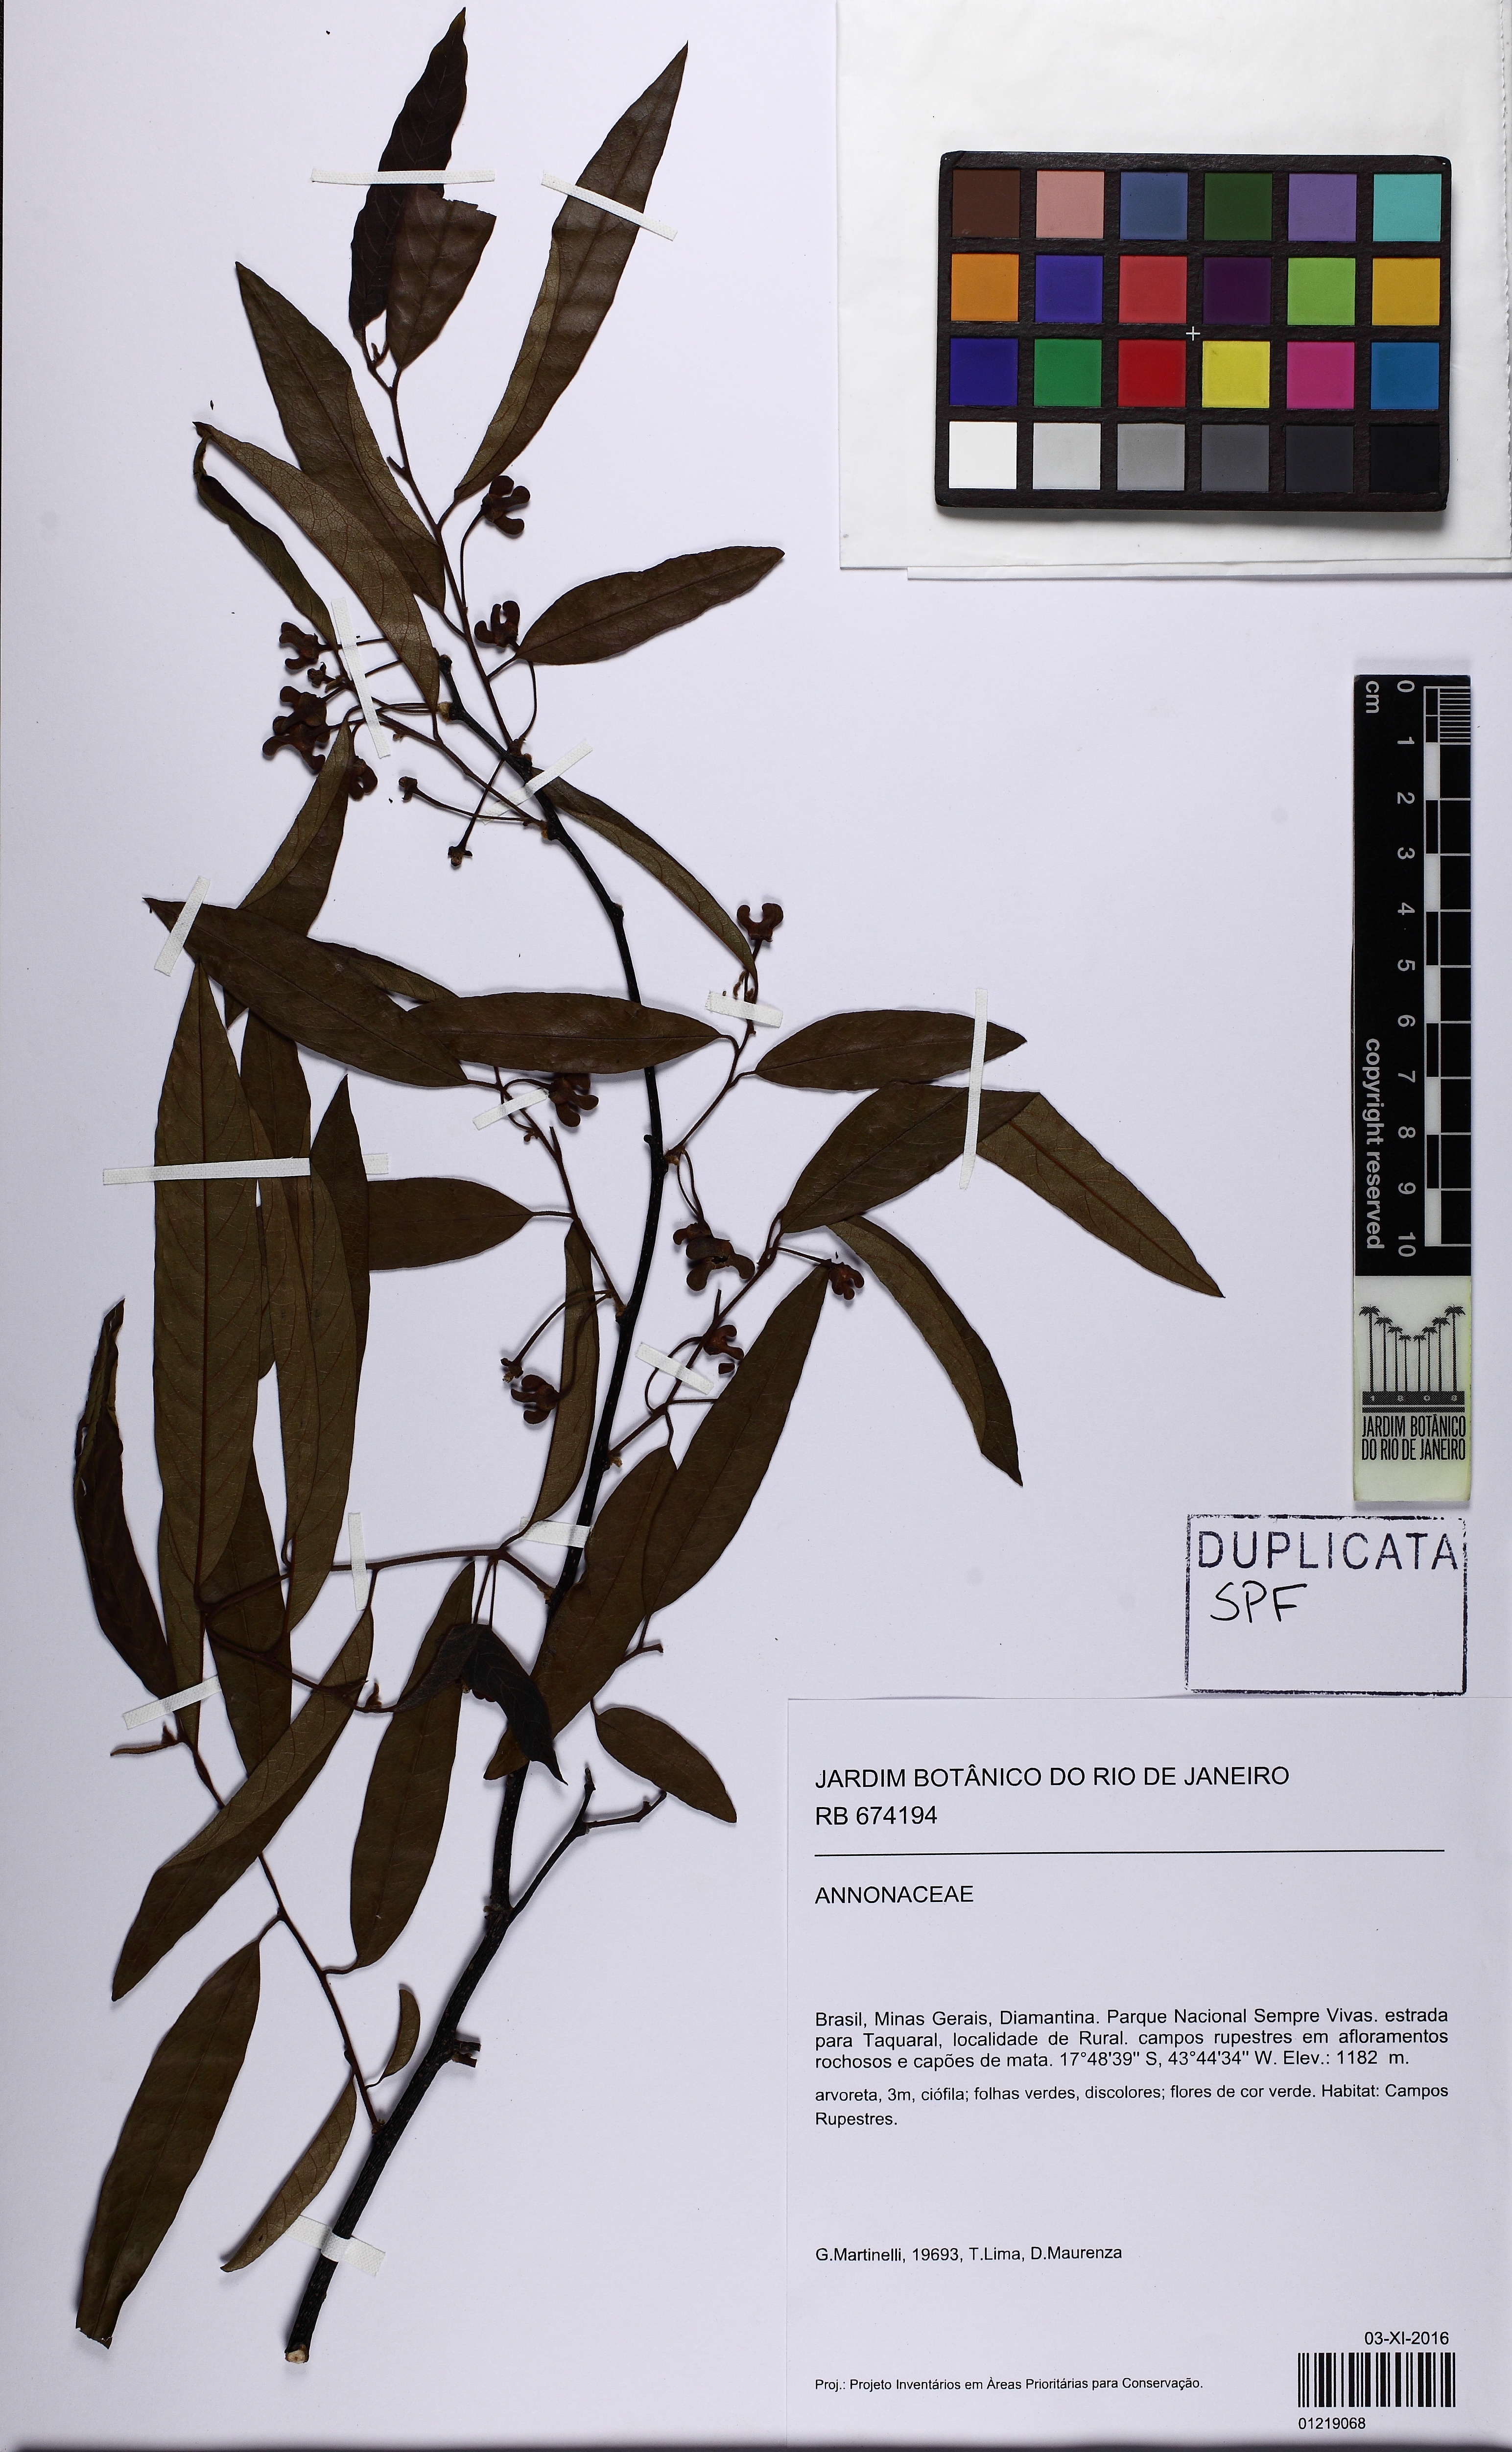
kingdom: Plantae
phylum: Tracheophyta
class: Magnoliopsida
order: Magnoliales
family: Annonaceae
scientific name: Annonaceae
